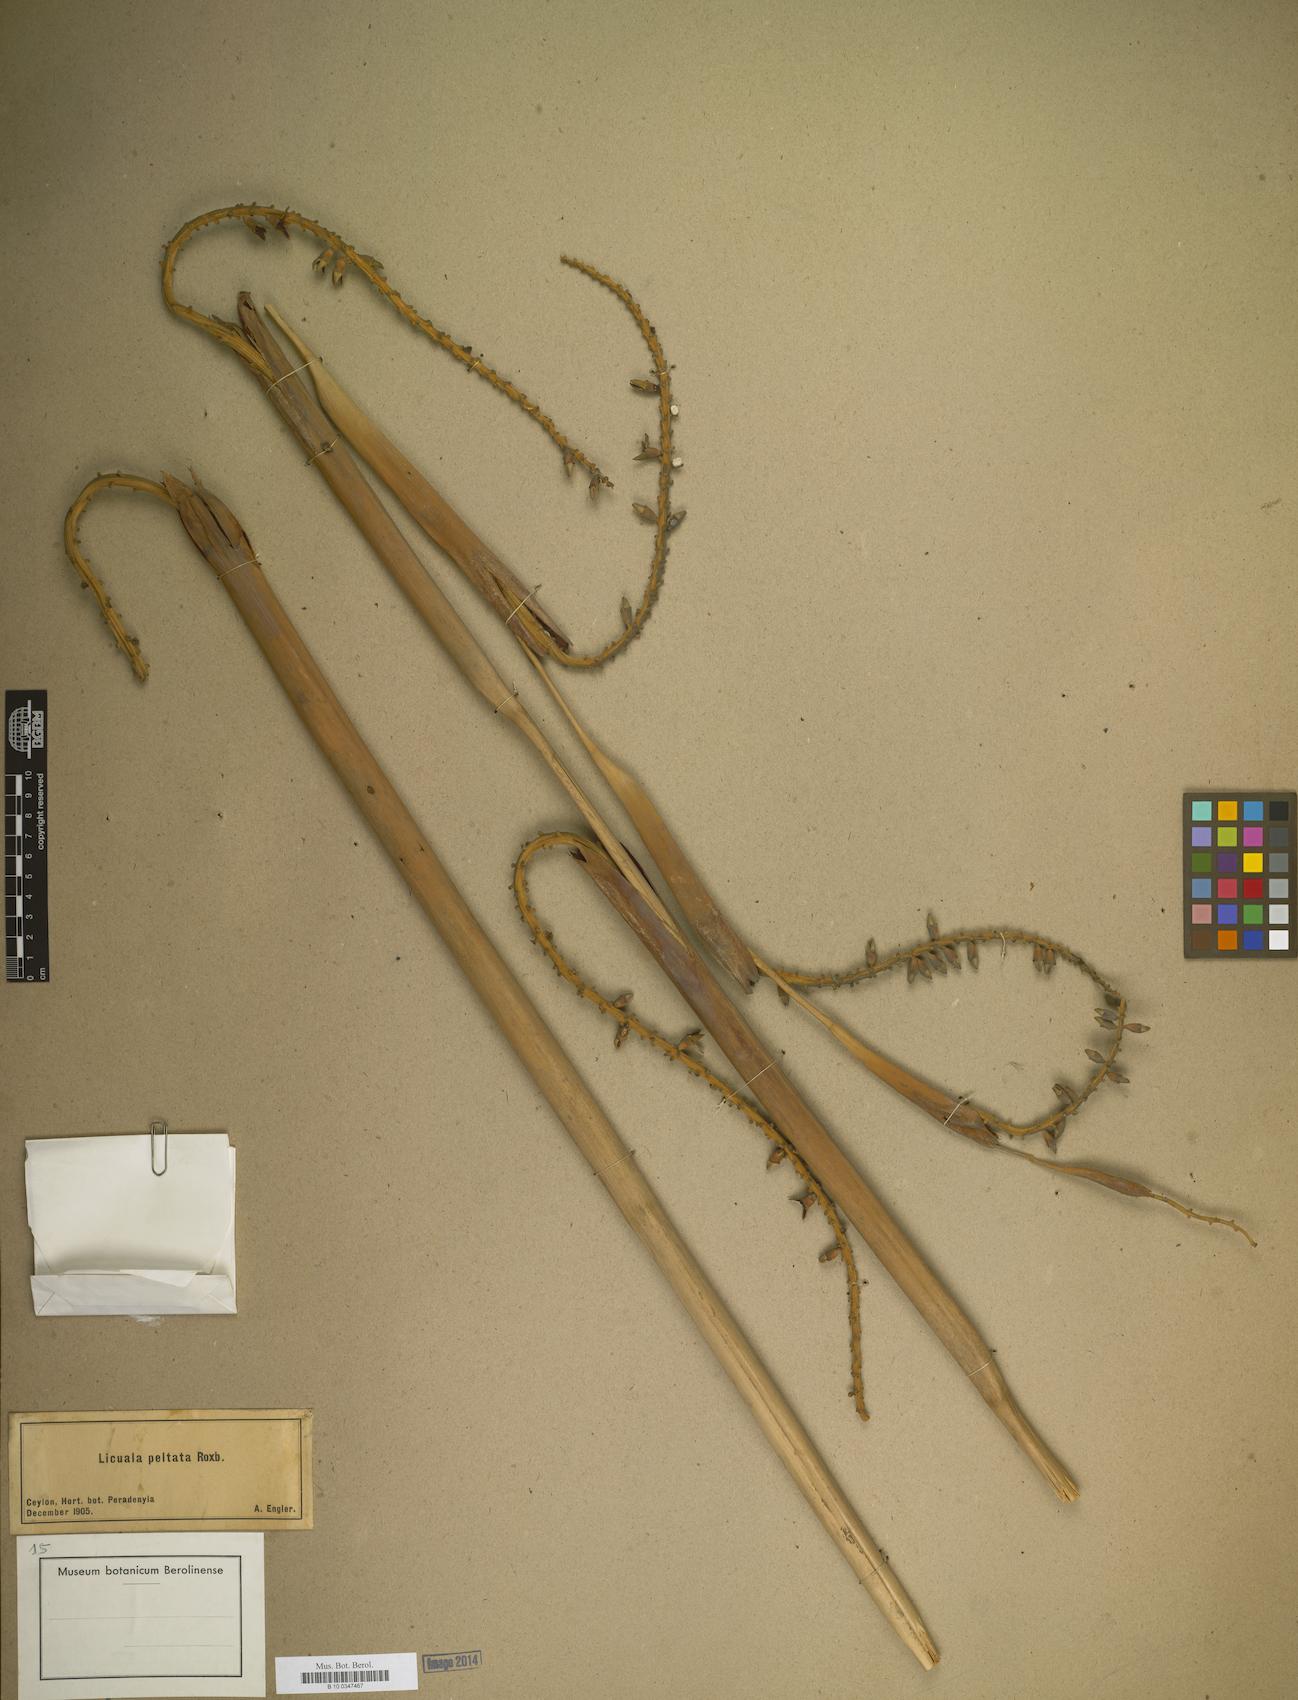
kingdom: Plantae
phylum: Tracheophyta
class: Liliopsida
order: Arecales
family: Arecaceae
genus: Licuala
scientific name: Licuala peltata
